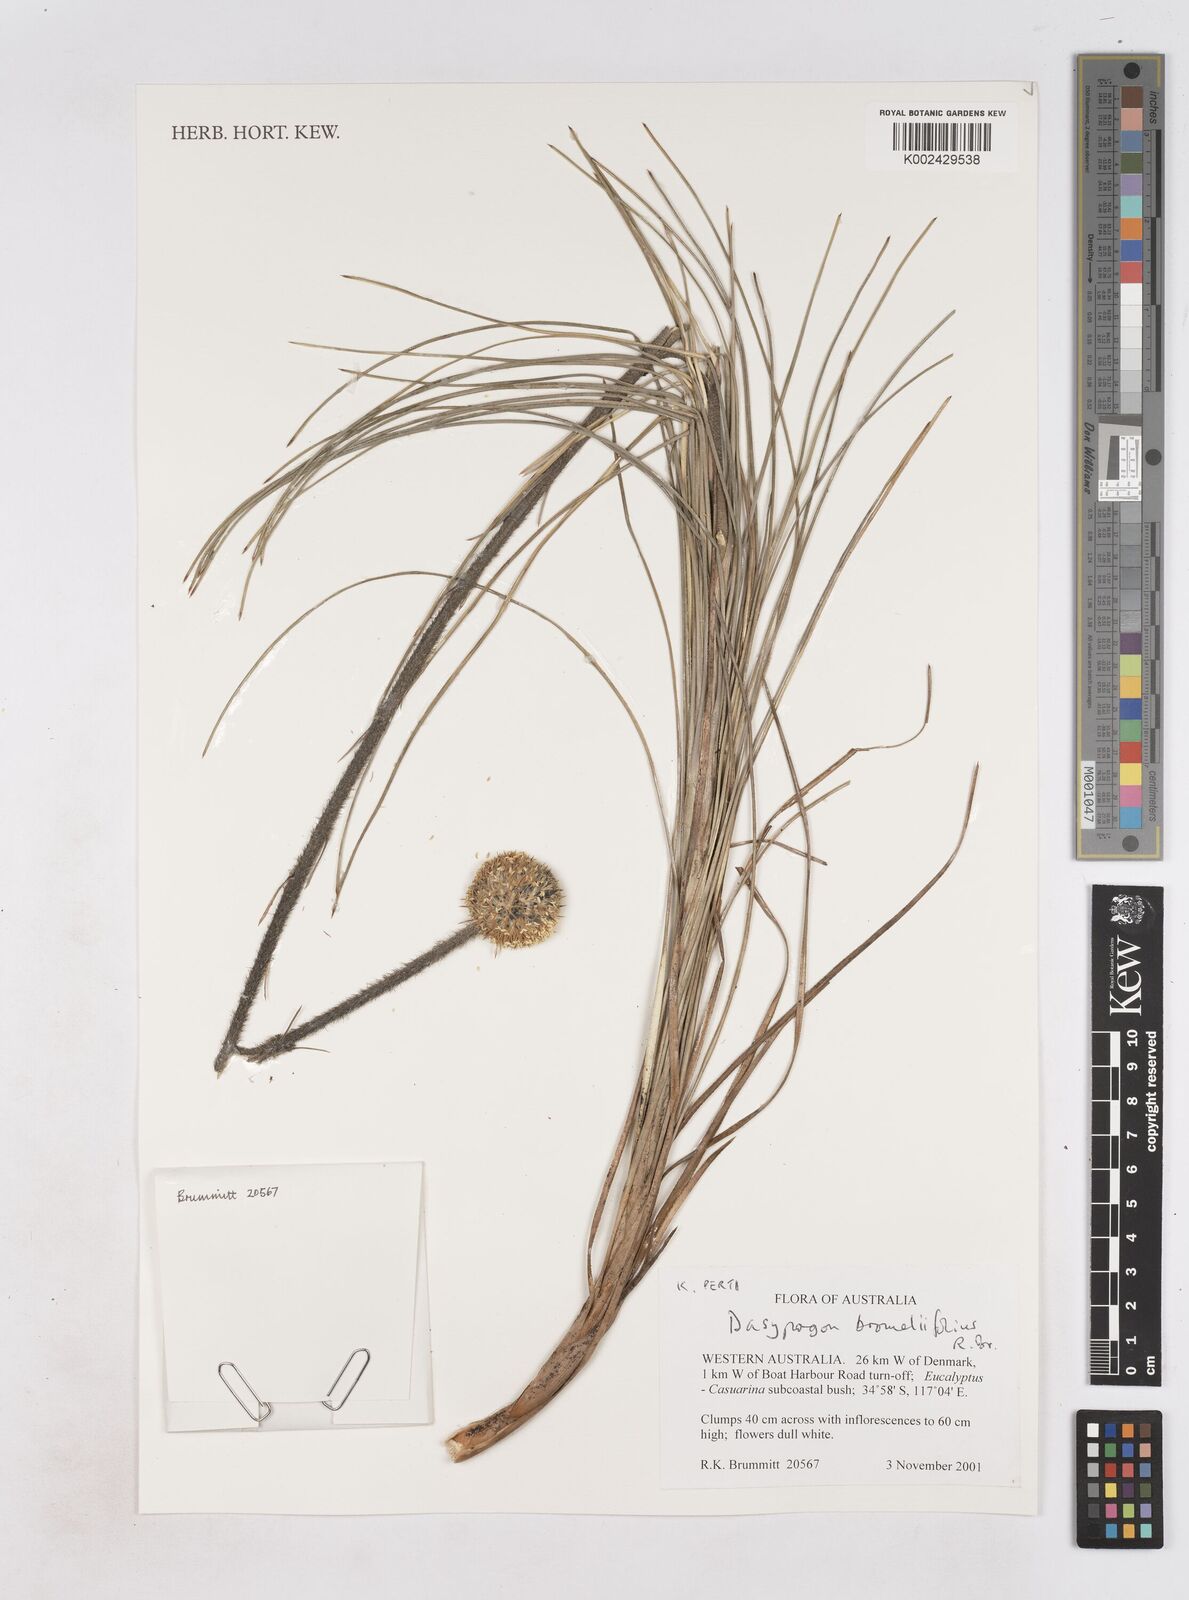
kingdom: Plantae
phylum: Tracheophyta
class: Liliopsida
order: Arecales
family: Dasypogonaceae
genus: Dasypogon
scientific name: Dasypogon bromeliifolius
